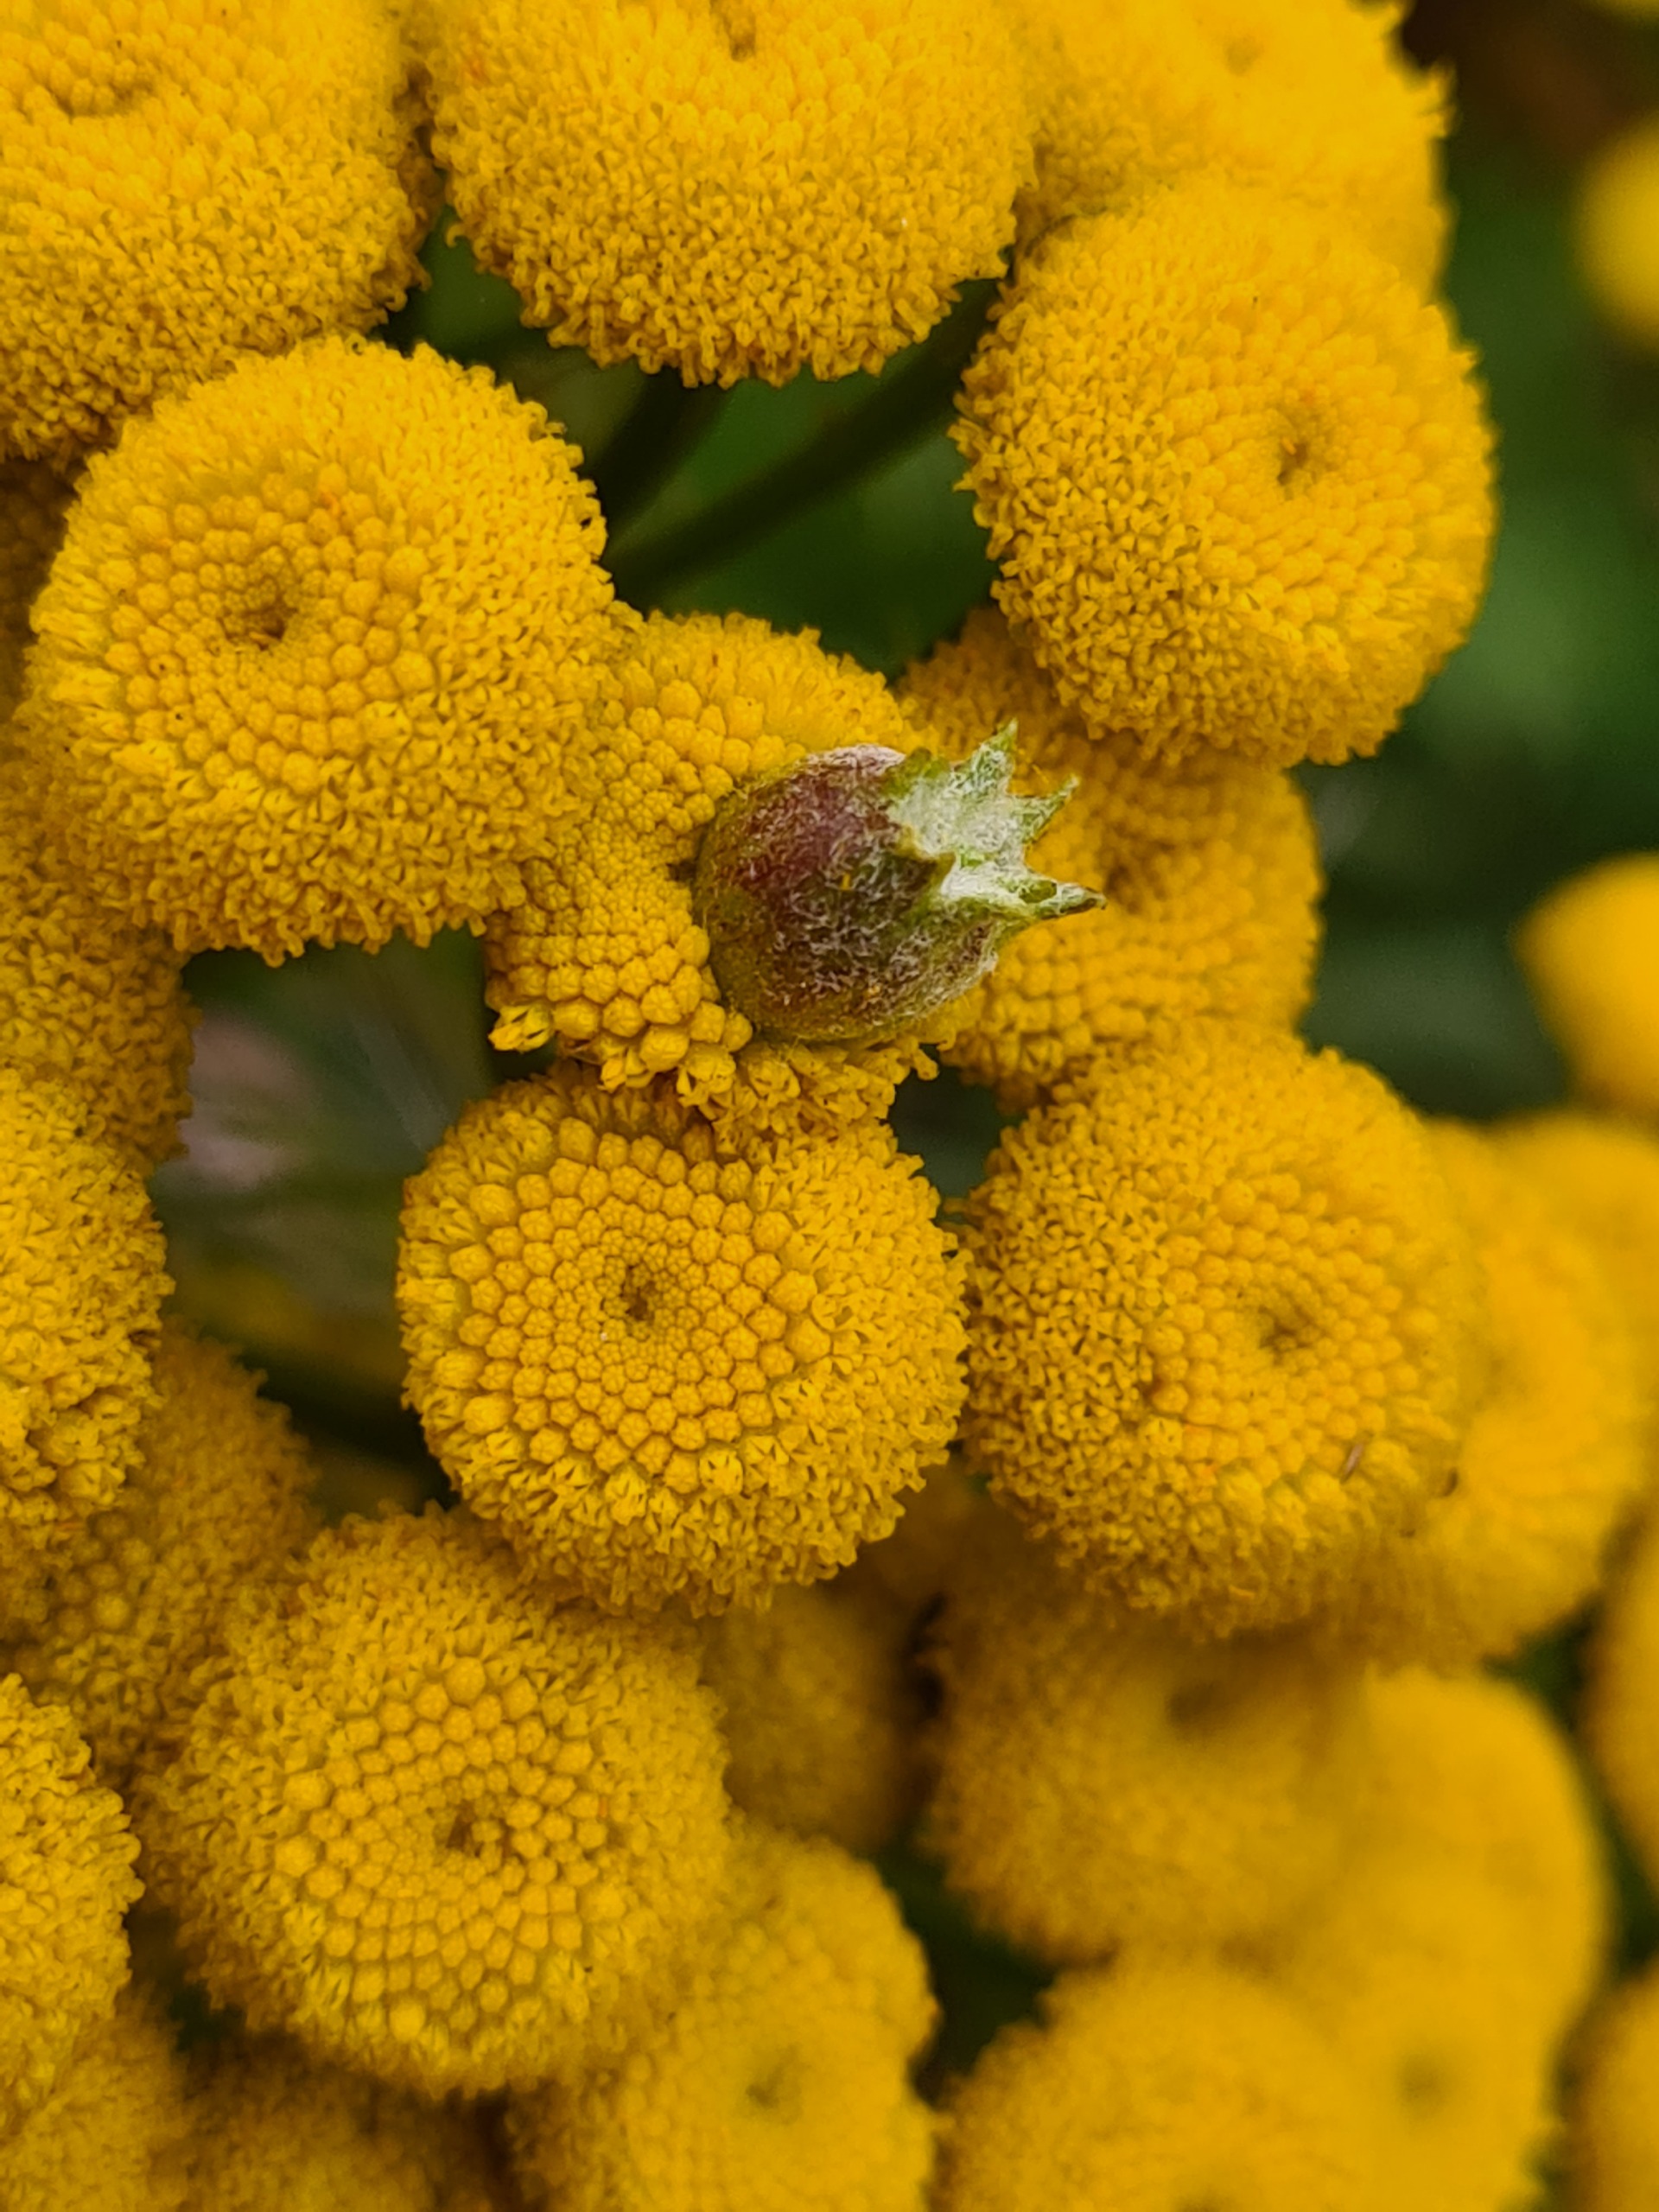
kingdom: Animalia
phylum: Arthropoda
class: Insecta
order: Diptera
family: Cecidomyiidae
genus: Rhopalomyia
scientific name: Rhopalomyia tanaceticolus
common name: Rejnfangalmyg
